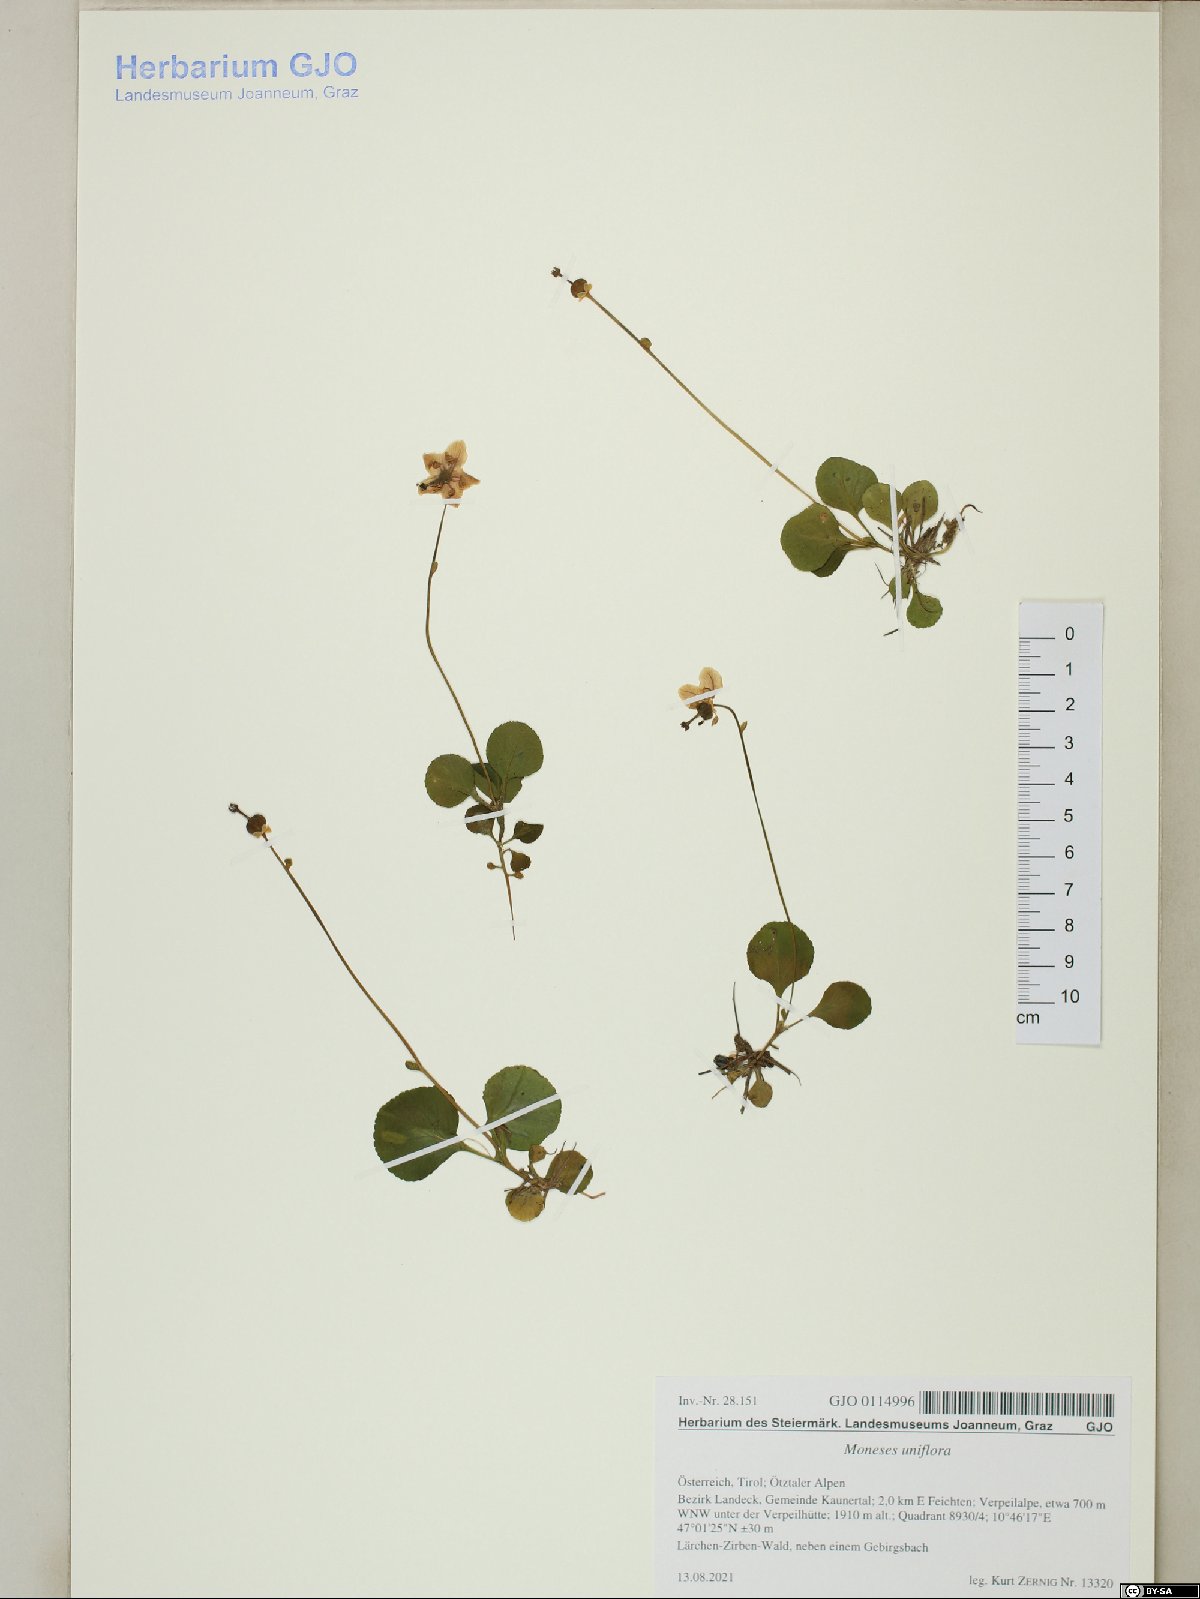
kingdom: Plantae
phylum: Tracheophyta
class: Magnoliopsida
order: Ericales
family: Ericaceae
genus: Moneses
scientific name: Moneses uniflora
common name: One-flowered wintergreen
